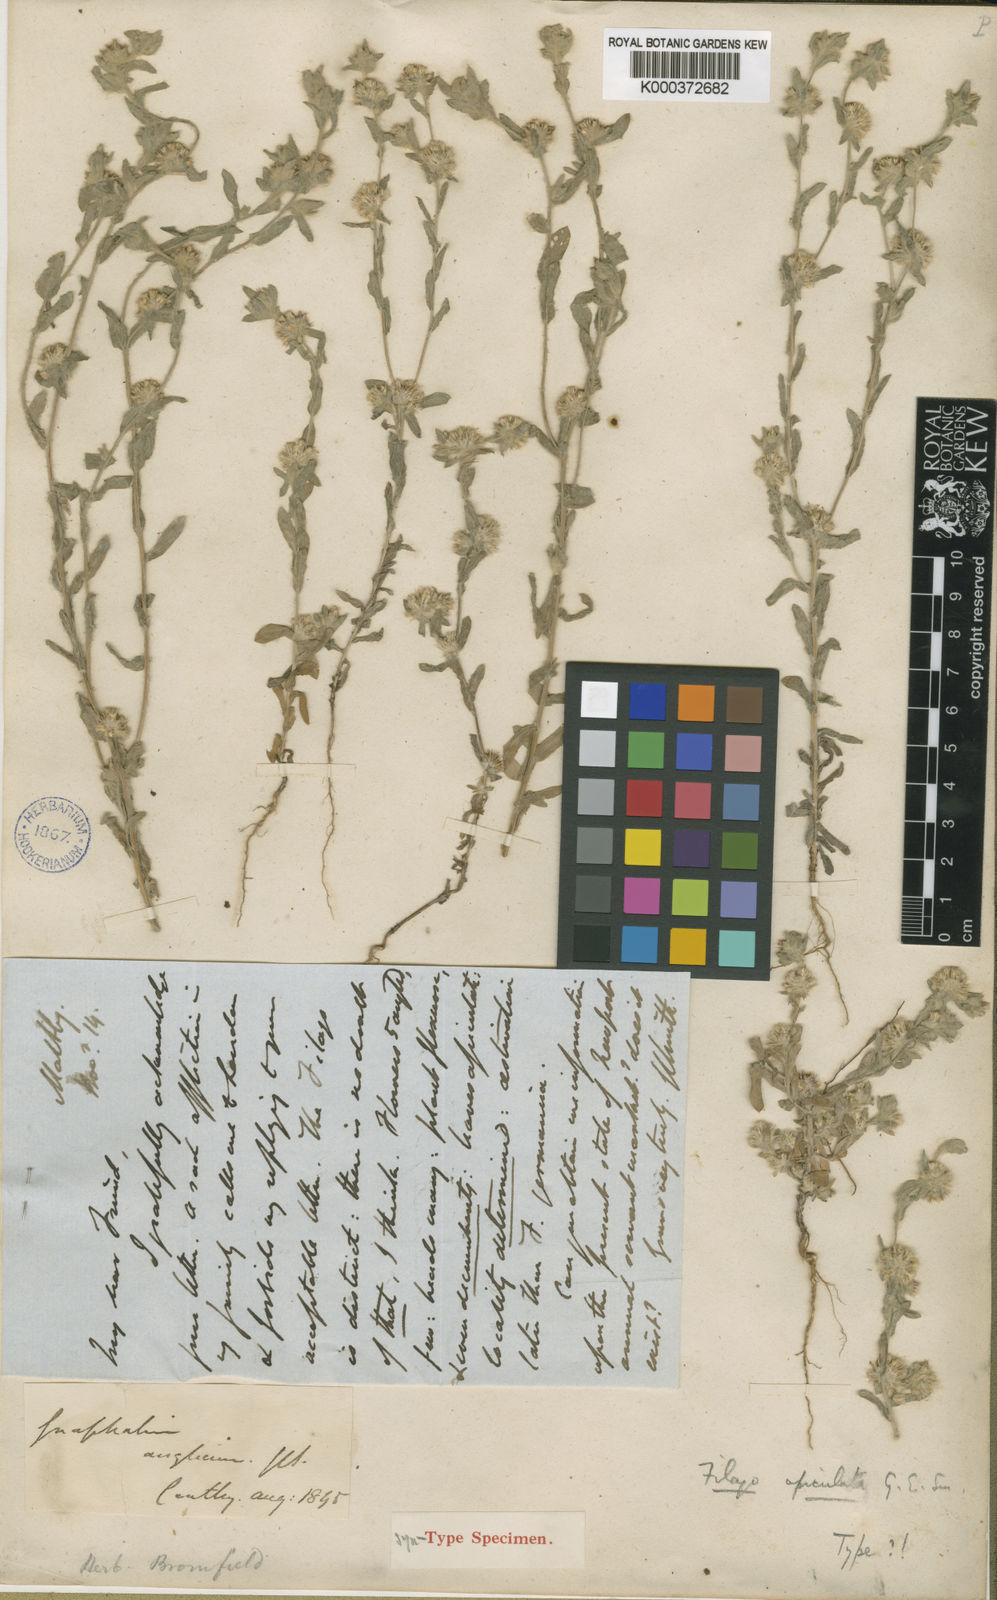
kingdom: Plantae
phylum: Tracheophyta
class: Magnoliopsida
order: Asterales
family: Asteraceae
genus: Filago
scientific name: Filago lutescens
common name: Red-tipped cudweed
